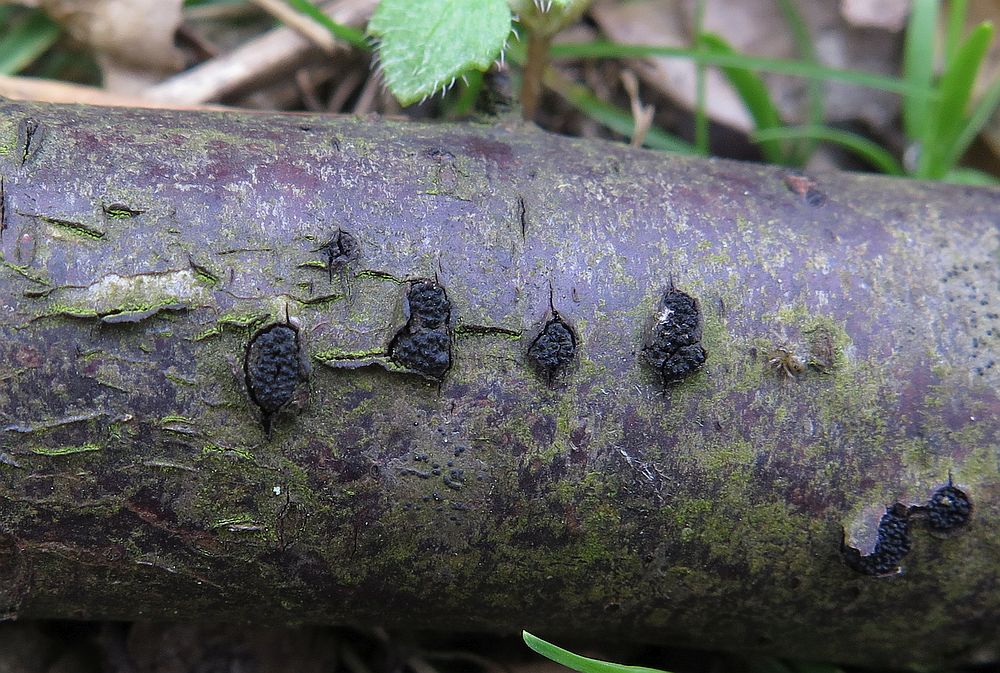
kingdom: Fungi
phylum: Ascomycota
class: Sordariomycetes
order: Xylariales
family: Diatrypaceae
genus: Eutypella
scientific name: Eutypella prunastri
